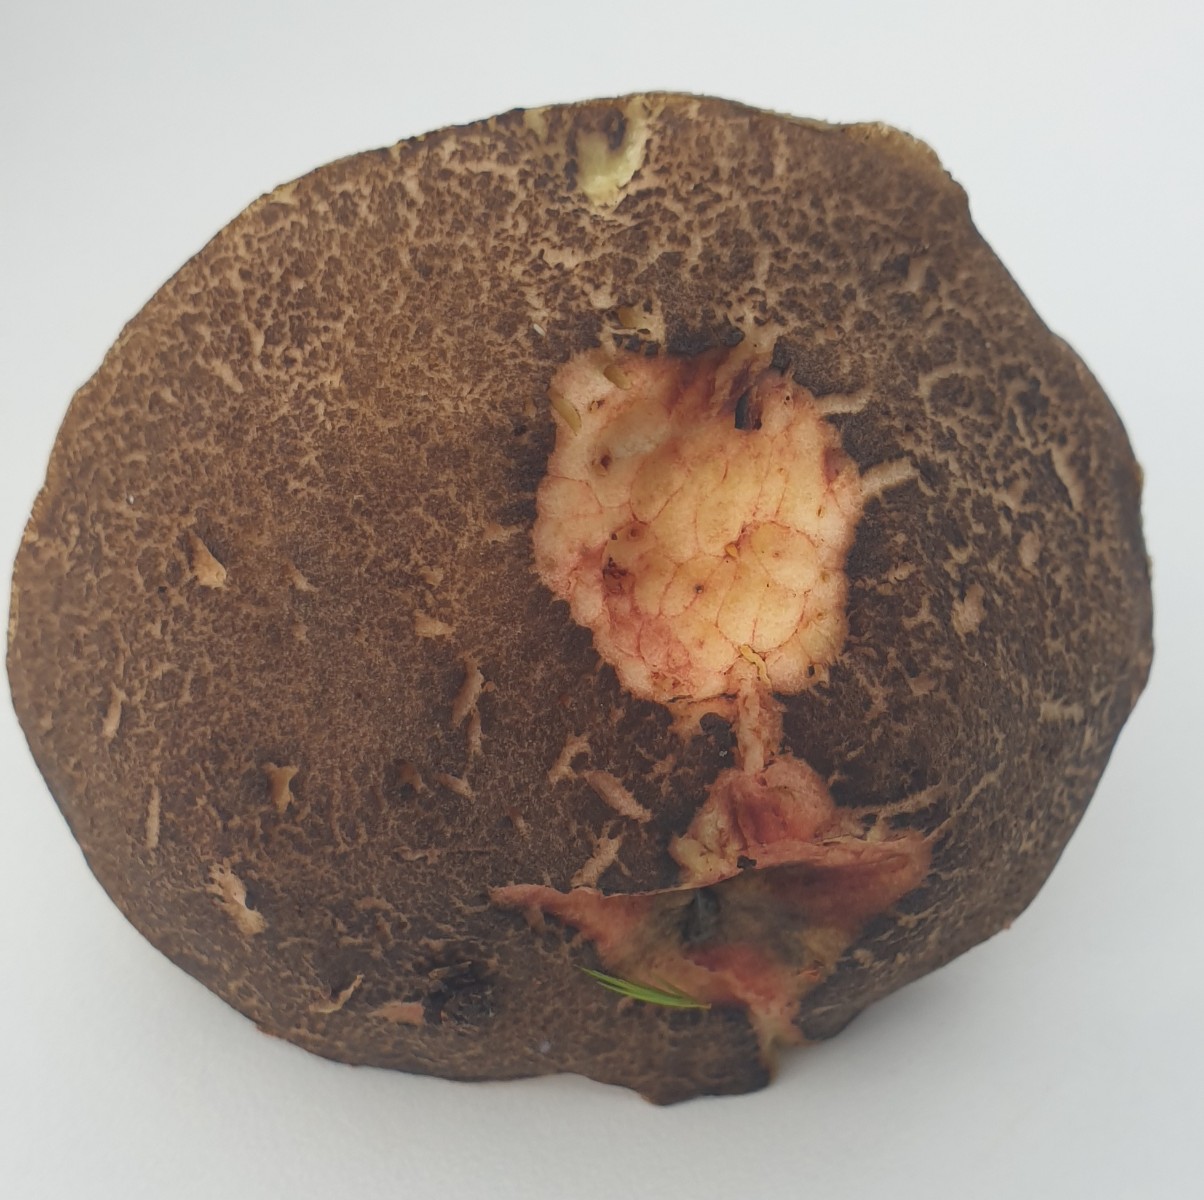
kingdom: Fungi
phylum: Basidiomycota
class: Agaricomycetes
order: Boletales
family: Boletaceae
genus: Xerocomellus
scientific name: Xerocomellus chrysenteron
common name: rødsprukken rørhat
